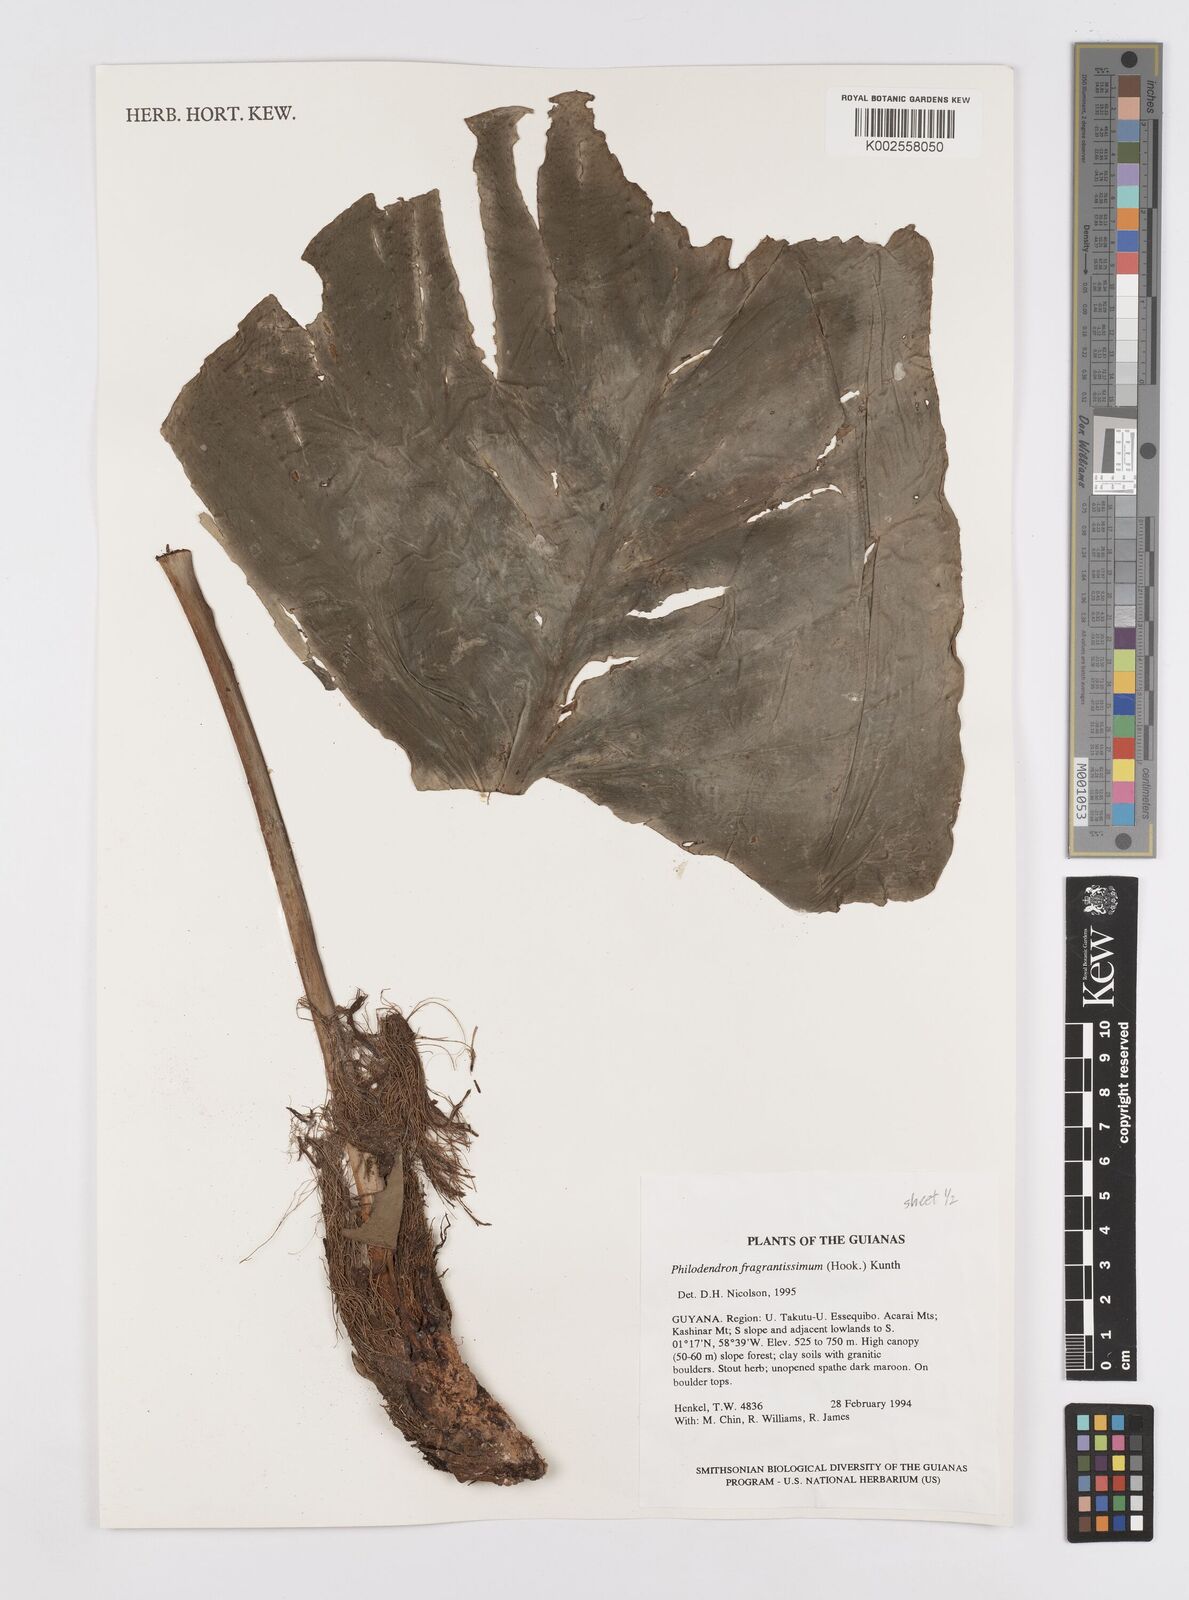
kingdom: Plantae
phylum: Tracheophyta
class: Liliopsida
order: Alismatales
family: Araceae
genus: Philodendron
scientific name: Philodendron fragrantissimum
